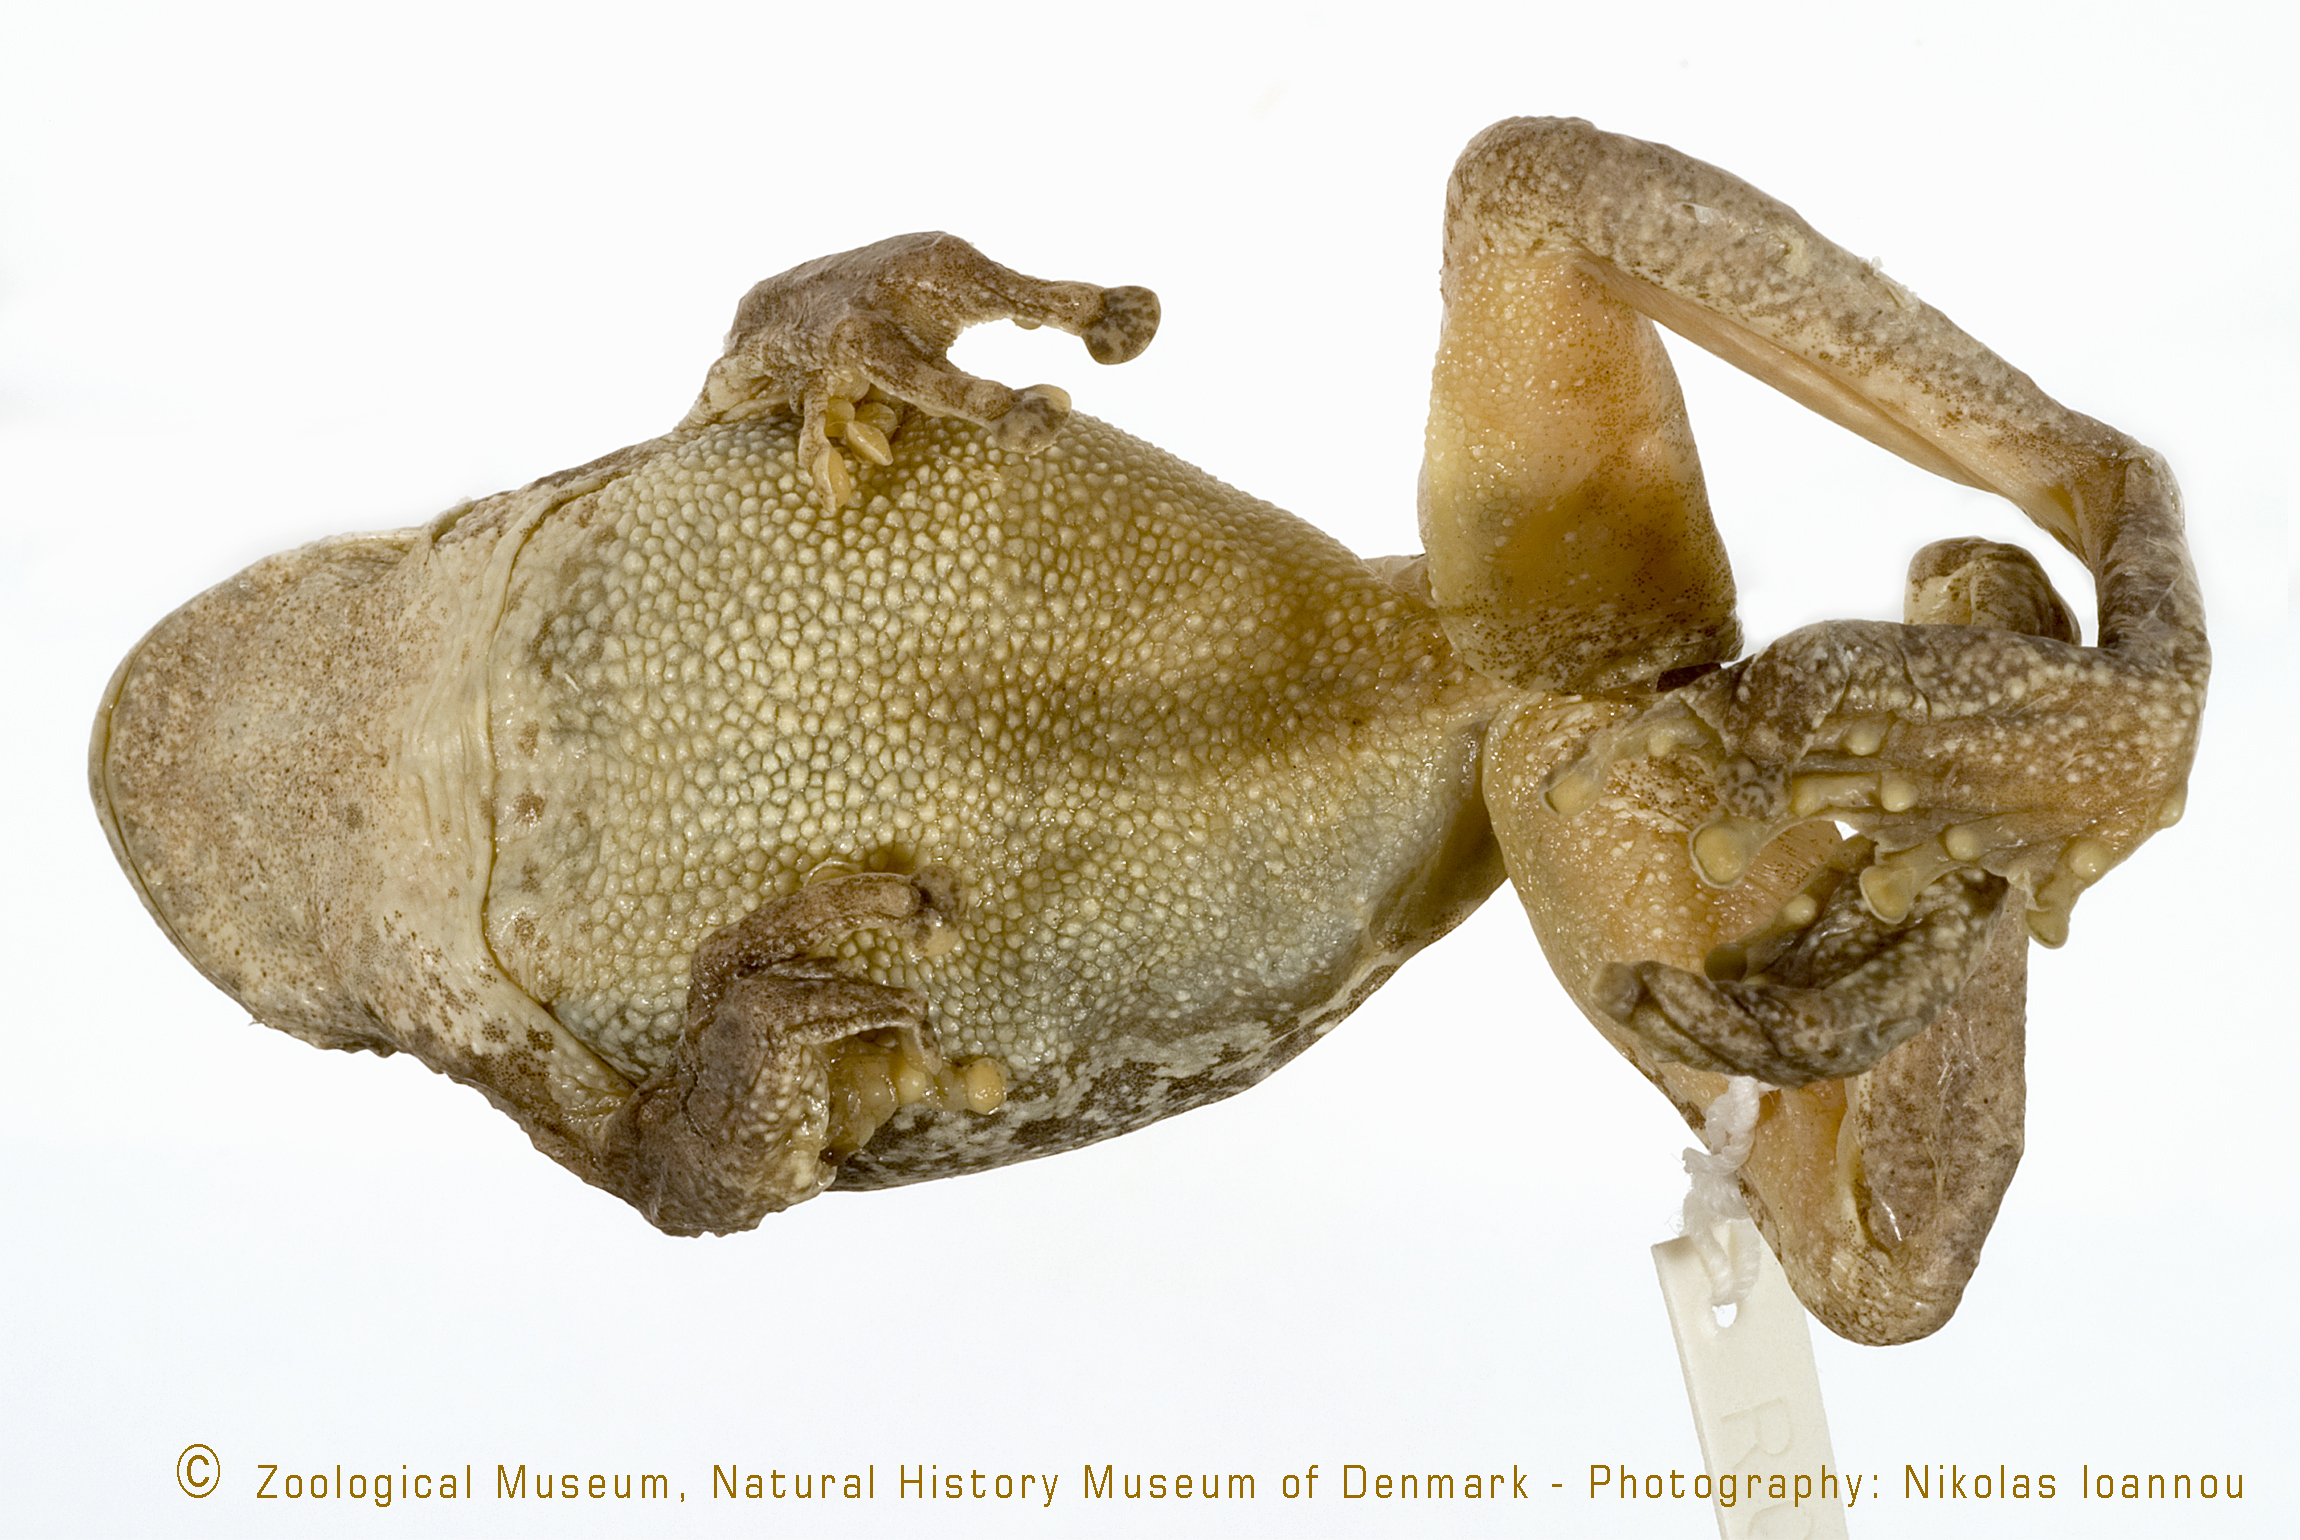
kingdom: Animalia
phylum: Chordata
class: Amphibia
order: Anura
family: Rhacophoridae
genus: Chiromantis
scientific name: Chiromantis petersii
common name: Central foam-nest tree frog
